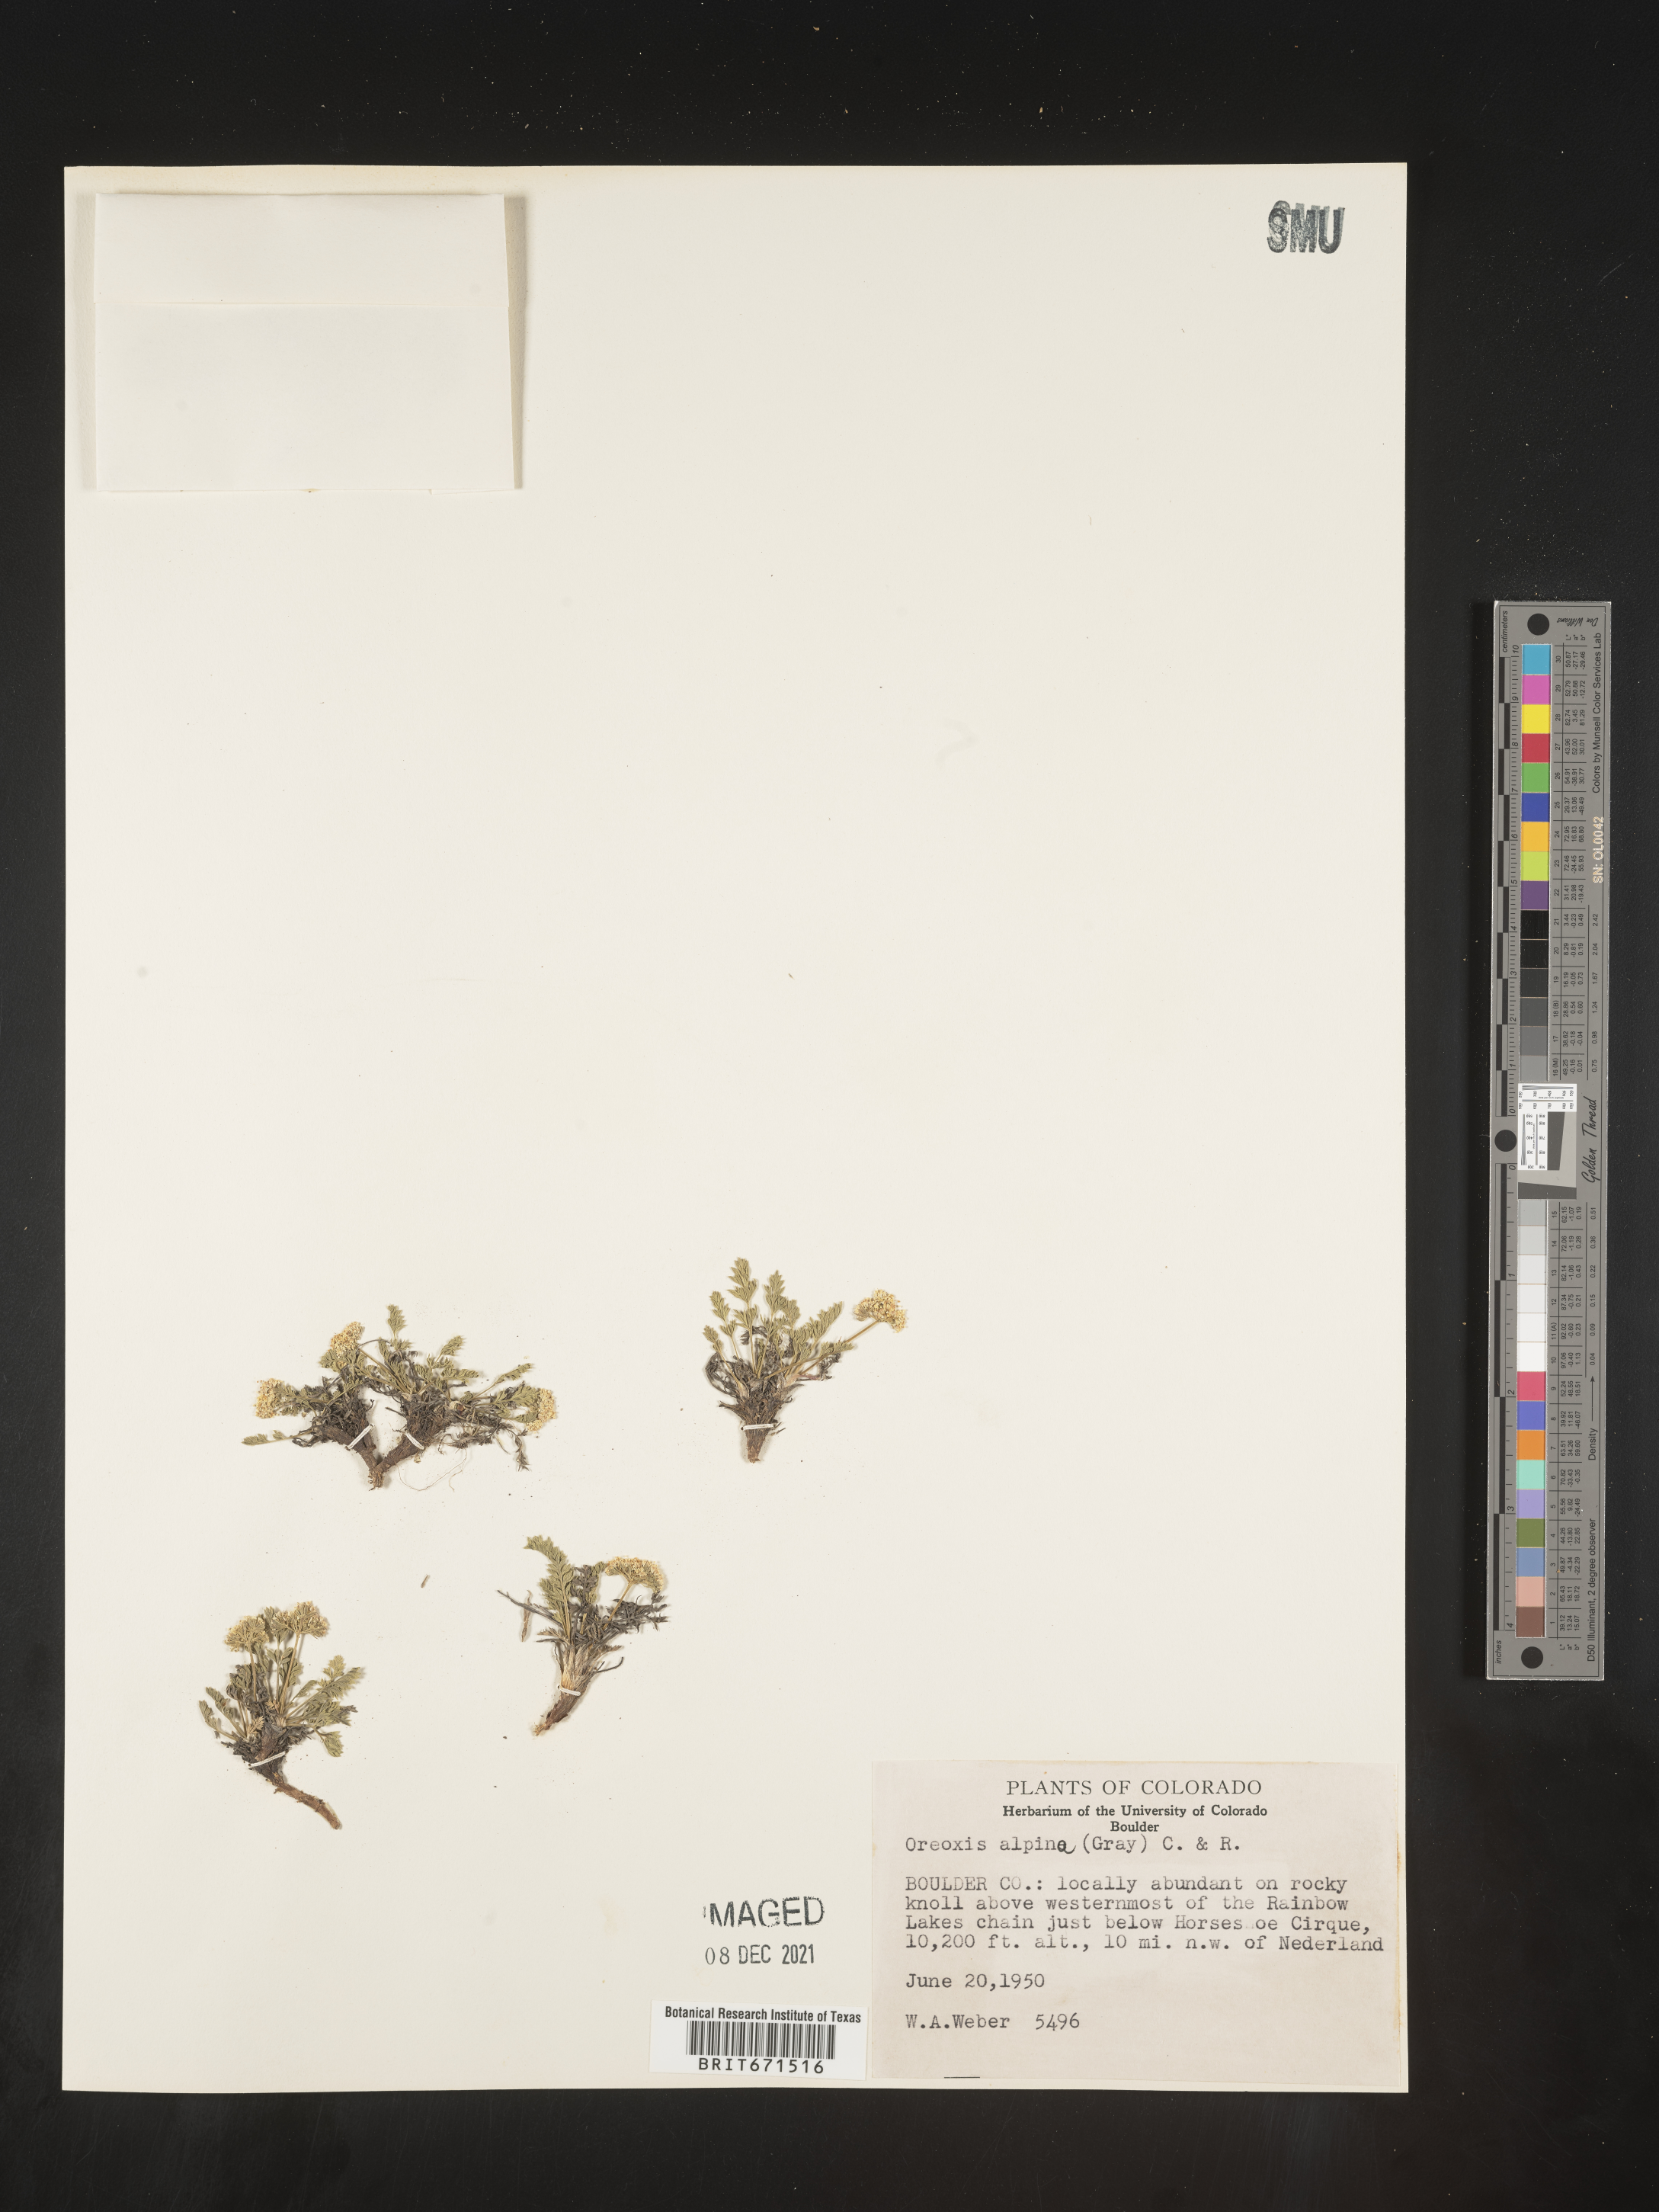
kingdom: Plantae
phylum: Tracheophyta
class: Magnoliopsida
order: Apiales
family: Apiaceae
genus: Oreoxis
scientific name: Oreoxis alpina
